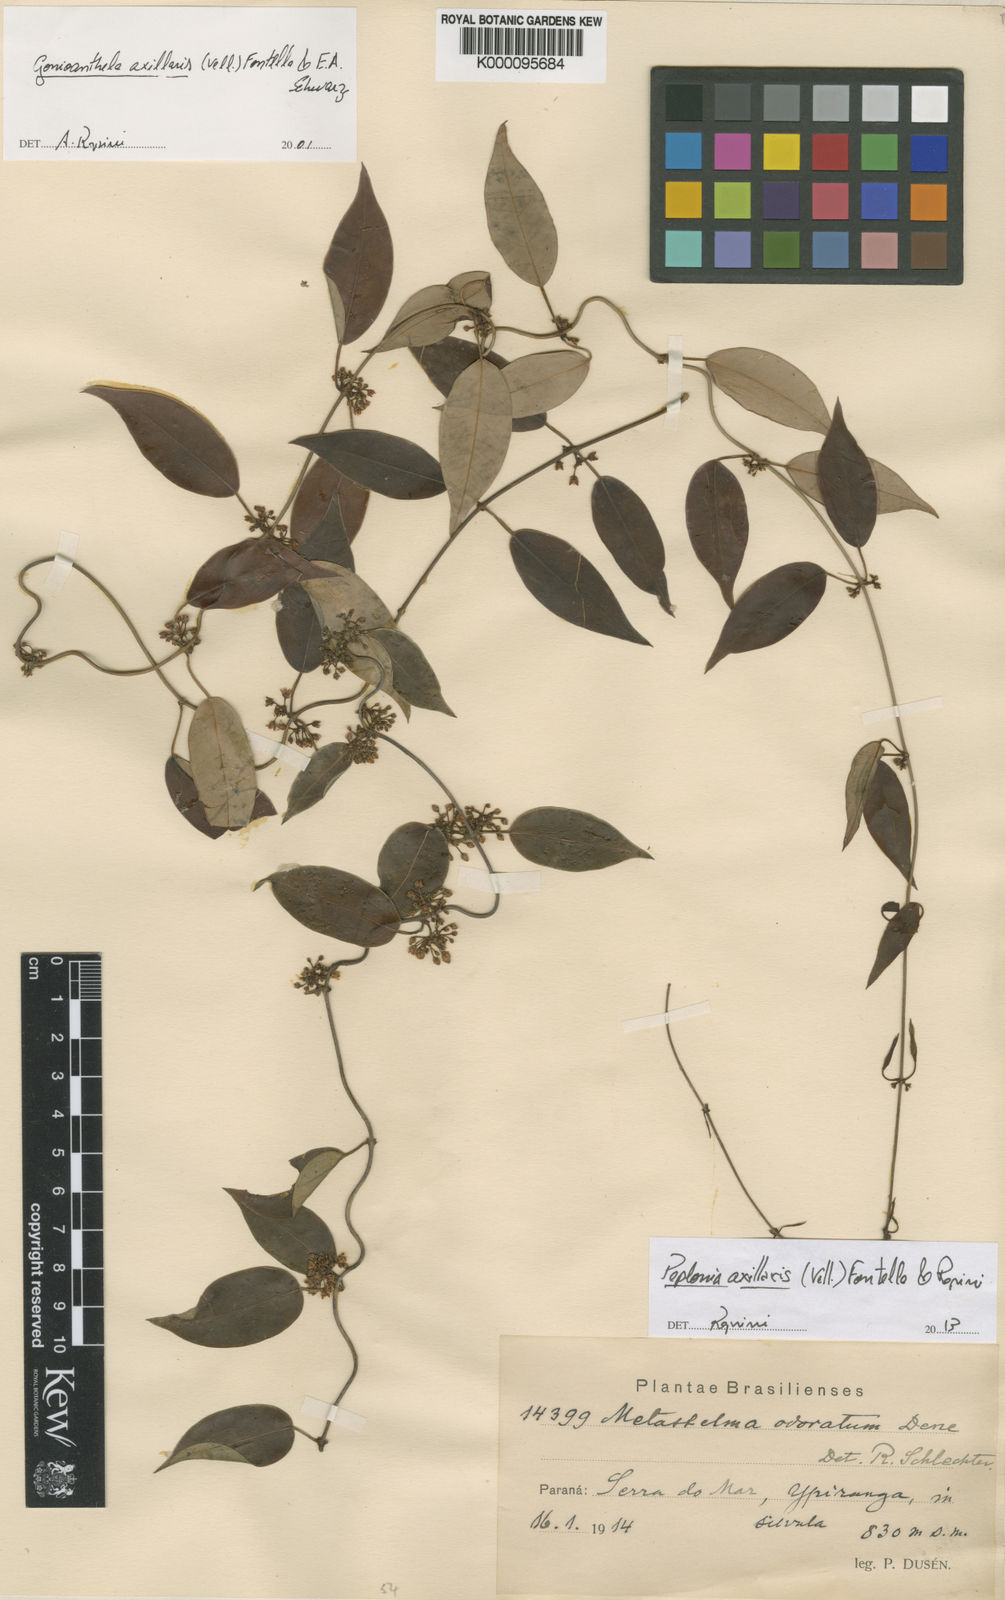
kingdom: Plantae
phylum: Tracheophyta
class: Magnoliopsida
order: Gentianales
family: Apocynaceae
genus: Peplonia
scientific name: Peplonia axillaris
